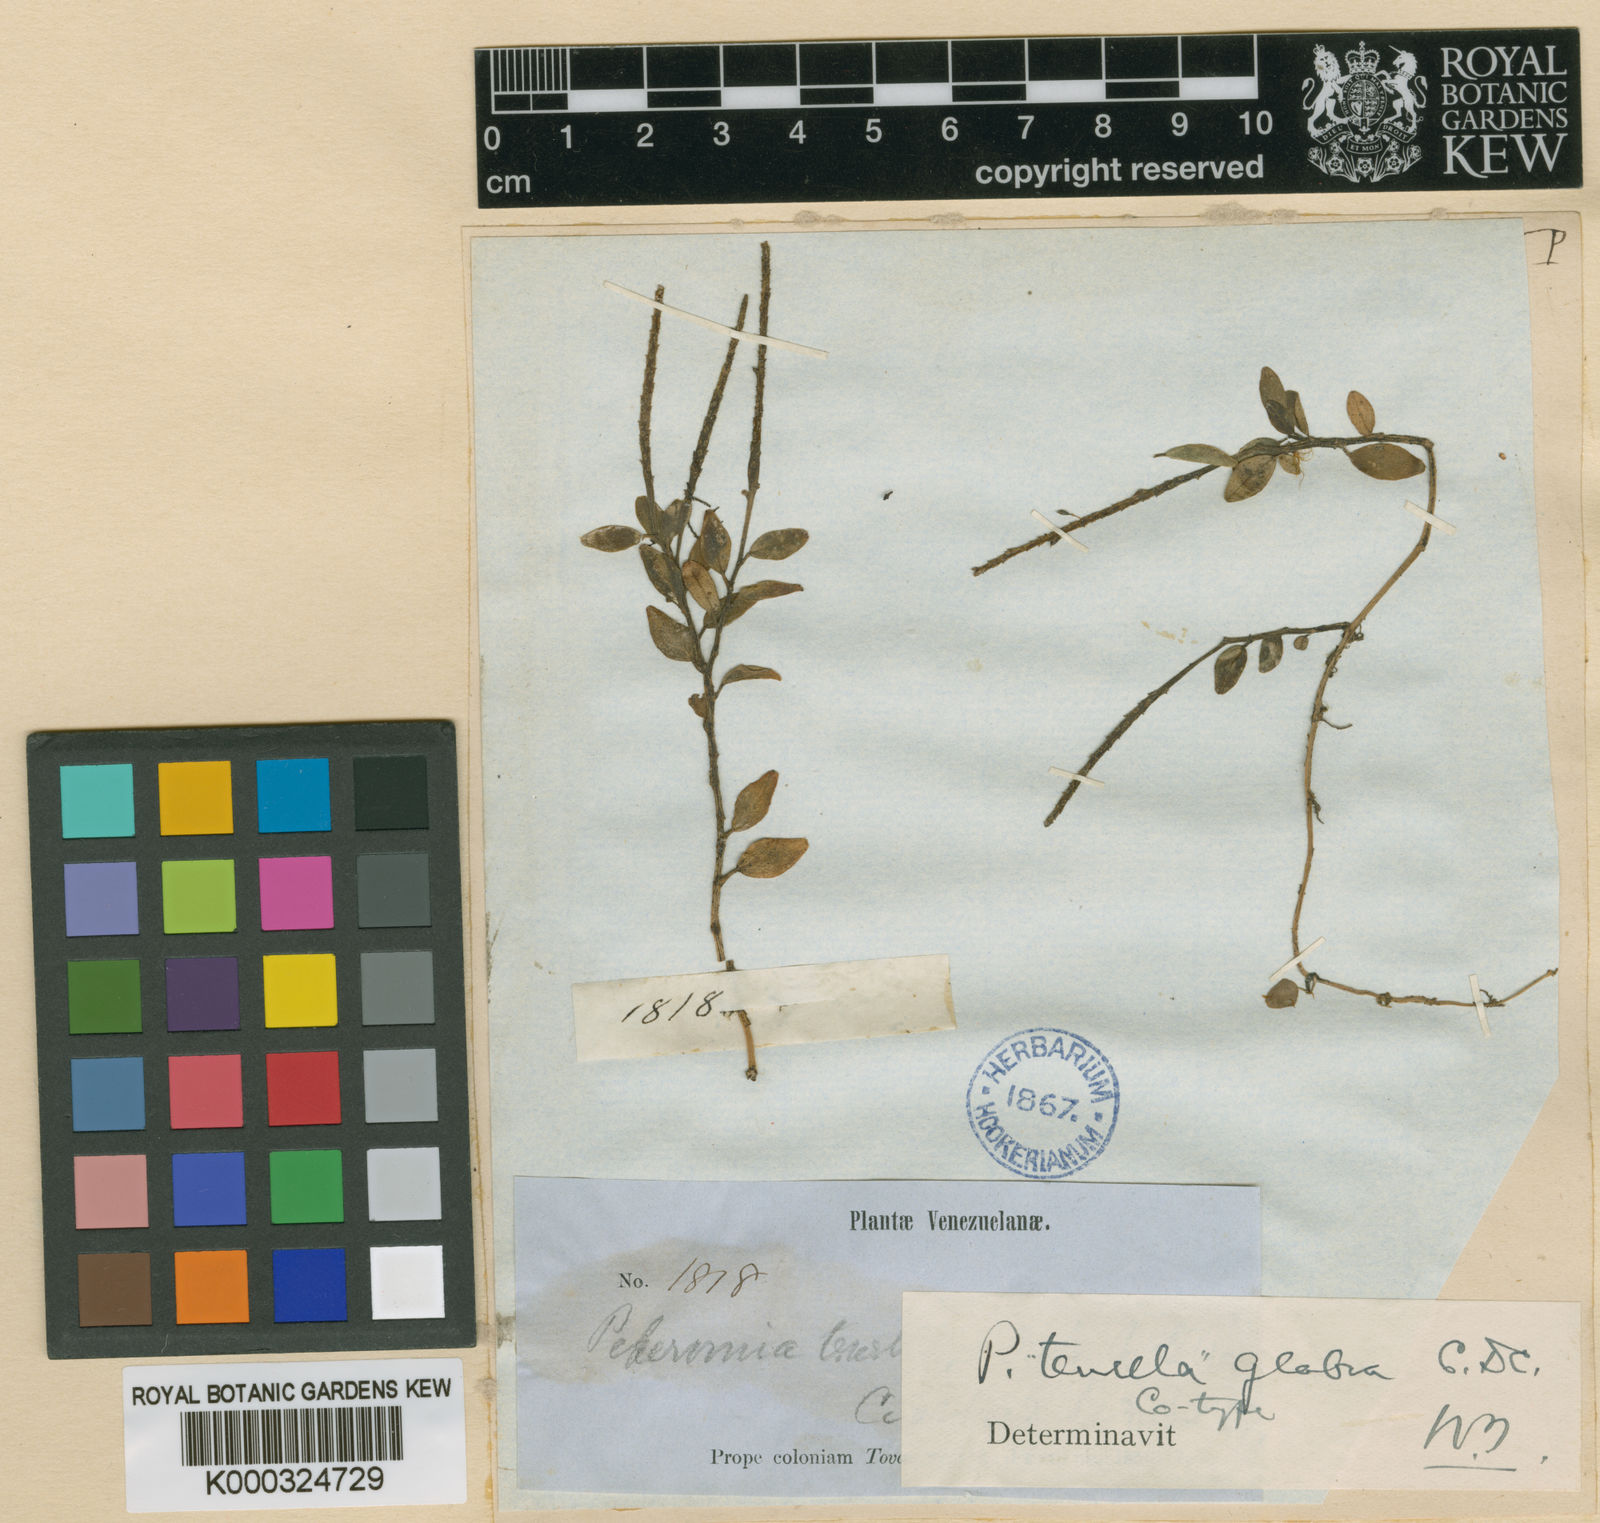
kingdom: Plantae
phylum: Tracheophyta
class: Magnoliopsida
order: Piperales
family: Piperaceae
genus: Peperomia
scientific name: Peperomia tenella
